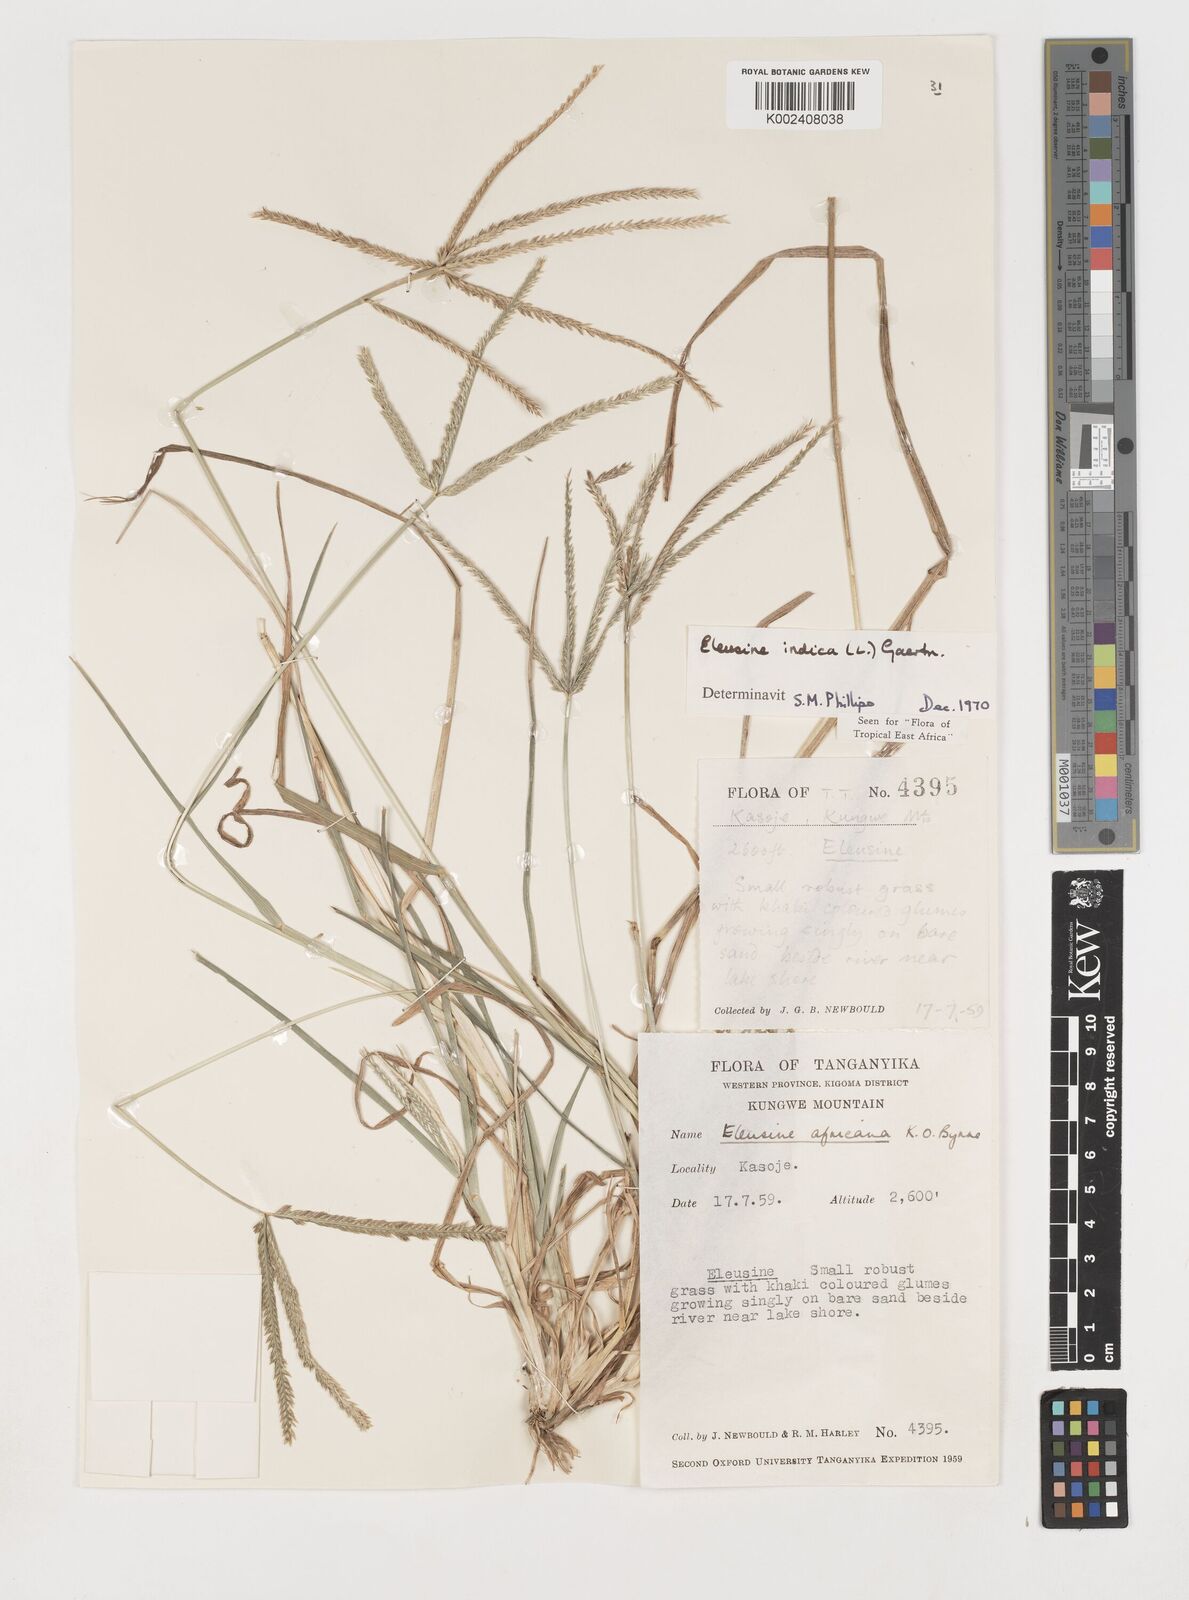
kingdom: Plantae
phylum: Tracheophyta
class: Liliopsida
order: Poales
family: Poaceae
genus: Eleusine
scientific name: Eleusine indica
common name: Yard-grass
